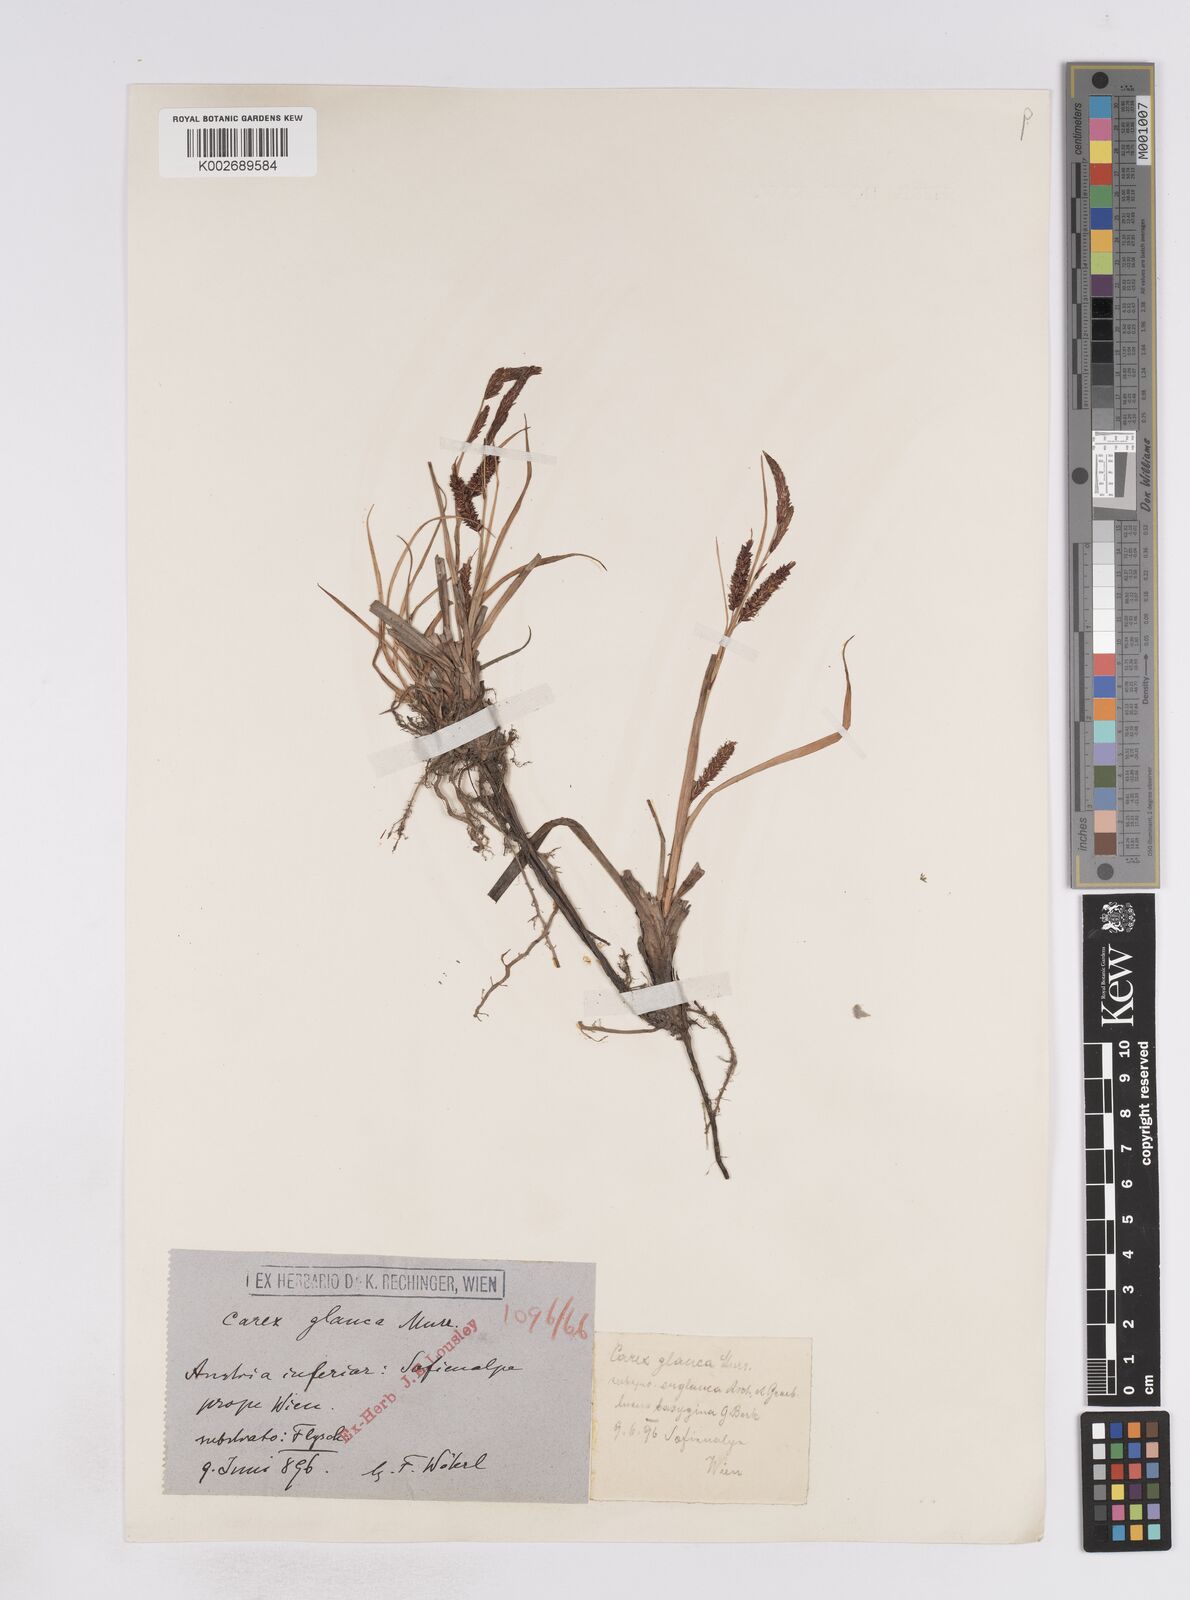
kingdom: Plantae
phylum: Tracheophyta
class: Liliopsida
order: Poales
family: Cyperaceae
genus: Carex
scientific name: Carex flacca
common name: Glaucous sedge
